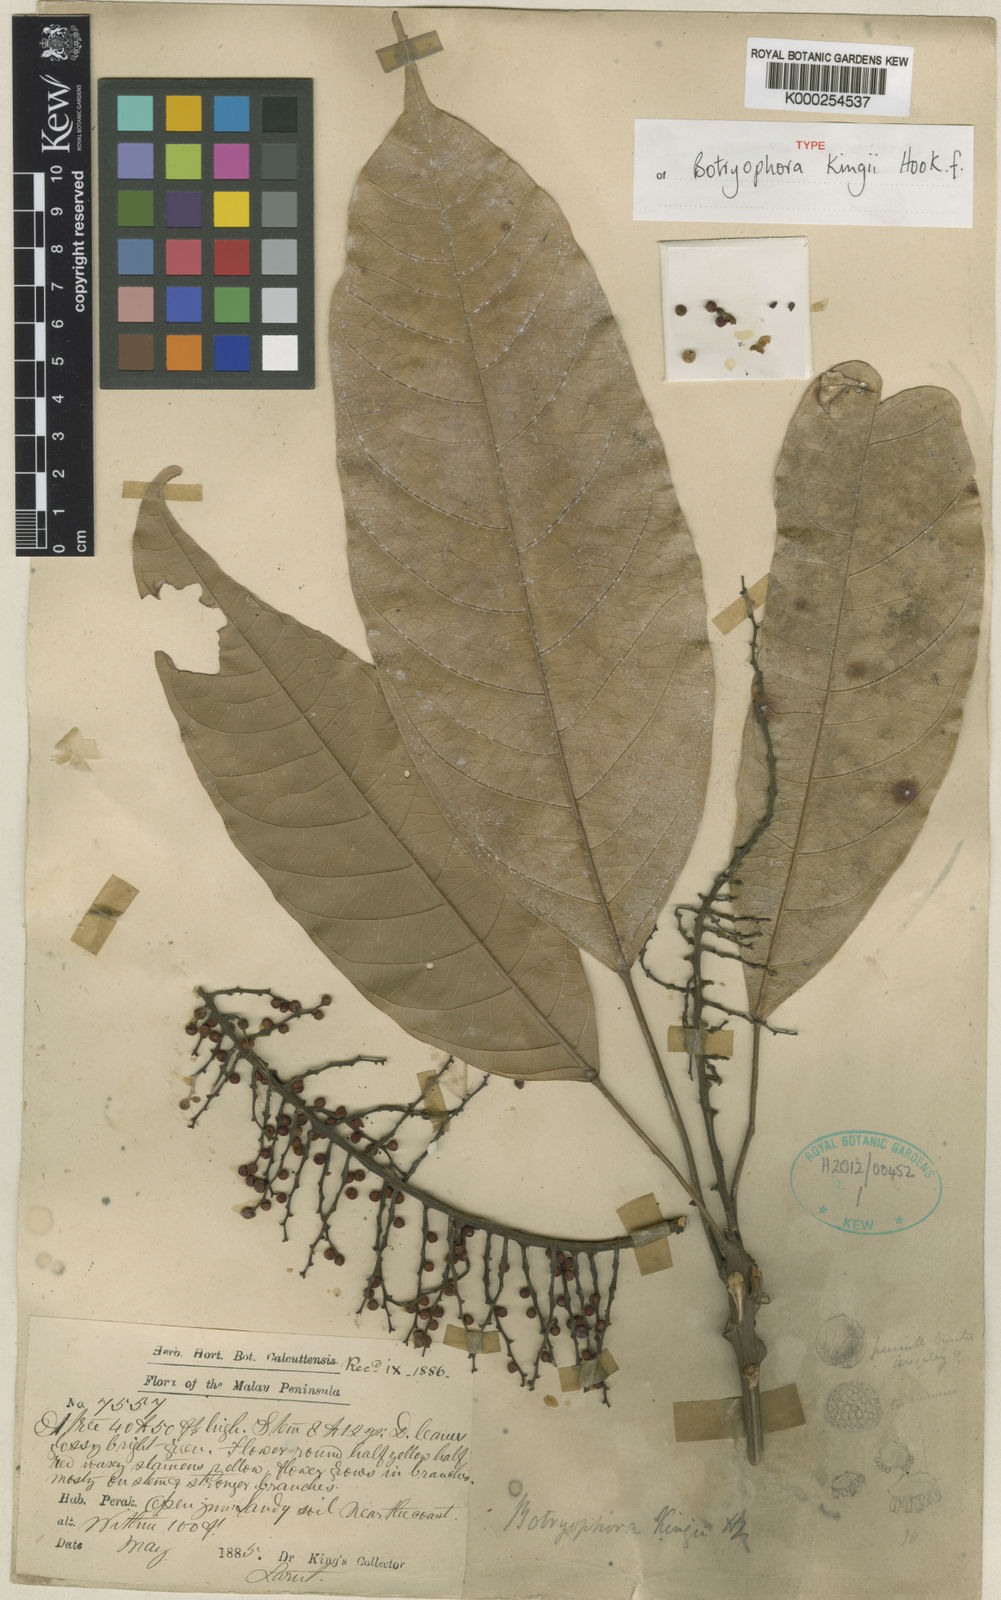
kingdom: Plantae
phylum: Tracheophyta
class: Magnoliopsida
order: Malpighiales
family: Euphorbiaceae
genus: Botryophora
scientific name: Botryophora
